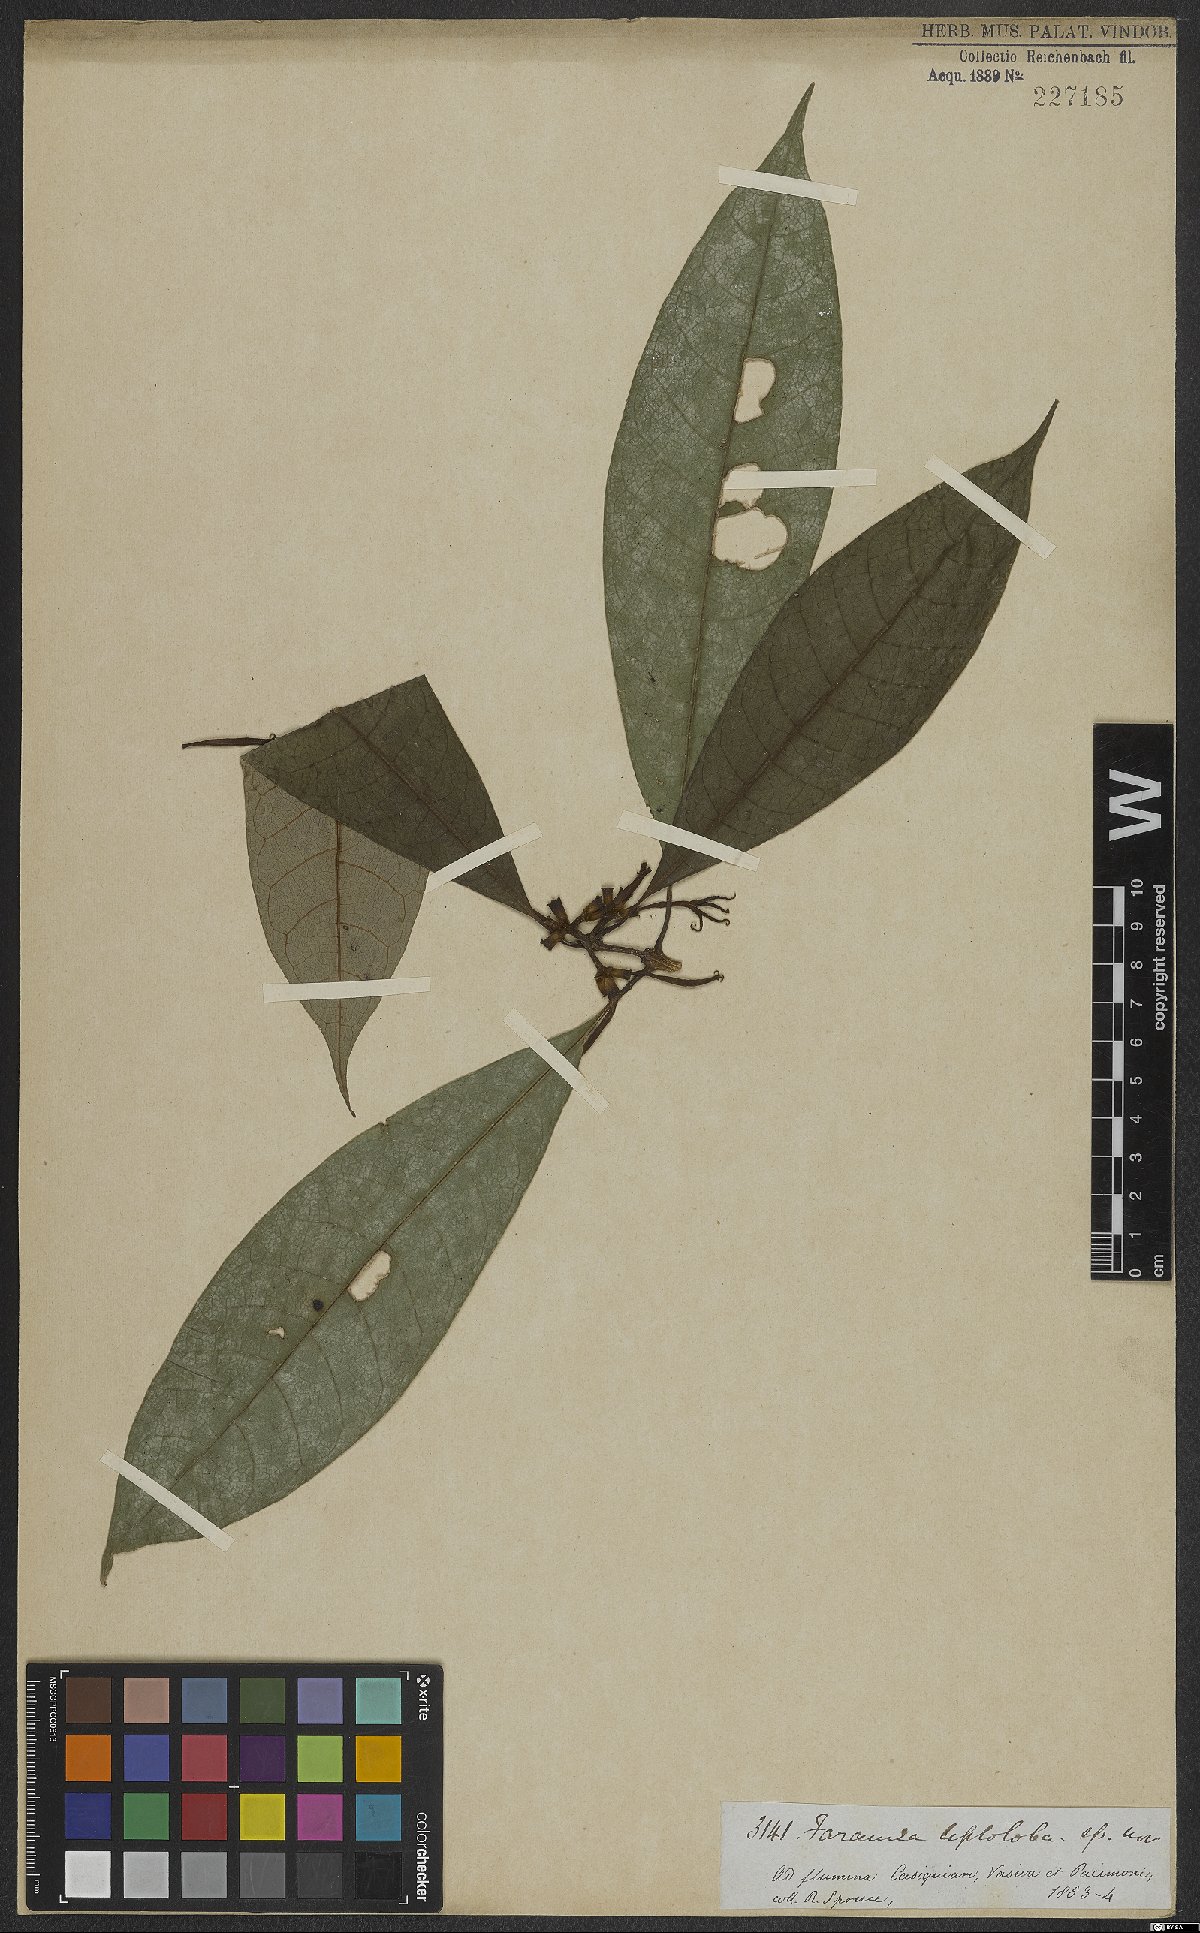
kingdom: Plantae
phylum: Tracheophyta
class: Magnoliopsida
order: Gentianales
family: Rubiaceae
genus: Coussarea
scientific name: Coussarea leptoloba
